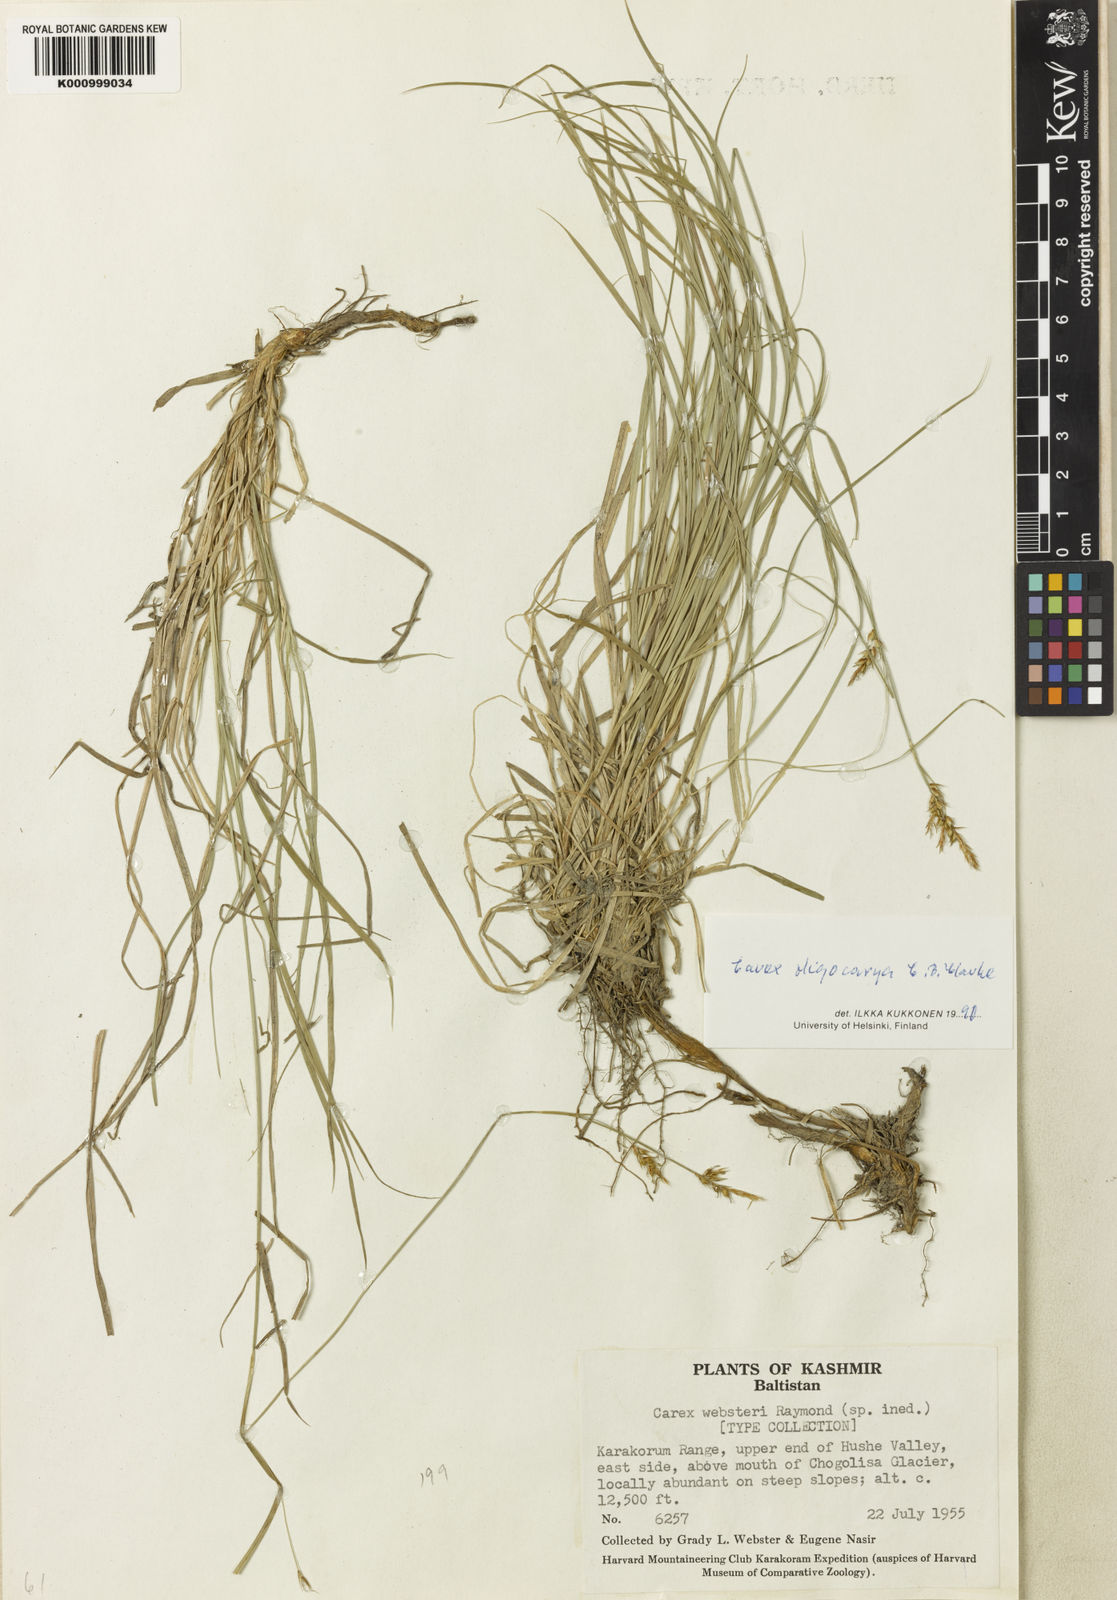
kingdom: Plantae
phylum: Tracheophyta
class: Liliopsida
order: Poales
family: Cyperaceae
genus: Carex
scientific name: Carex
